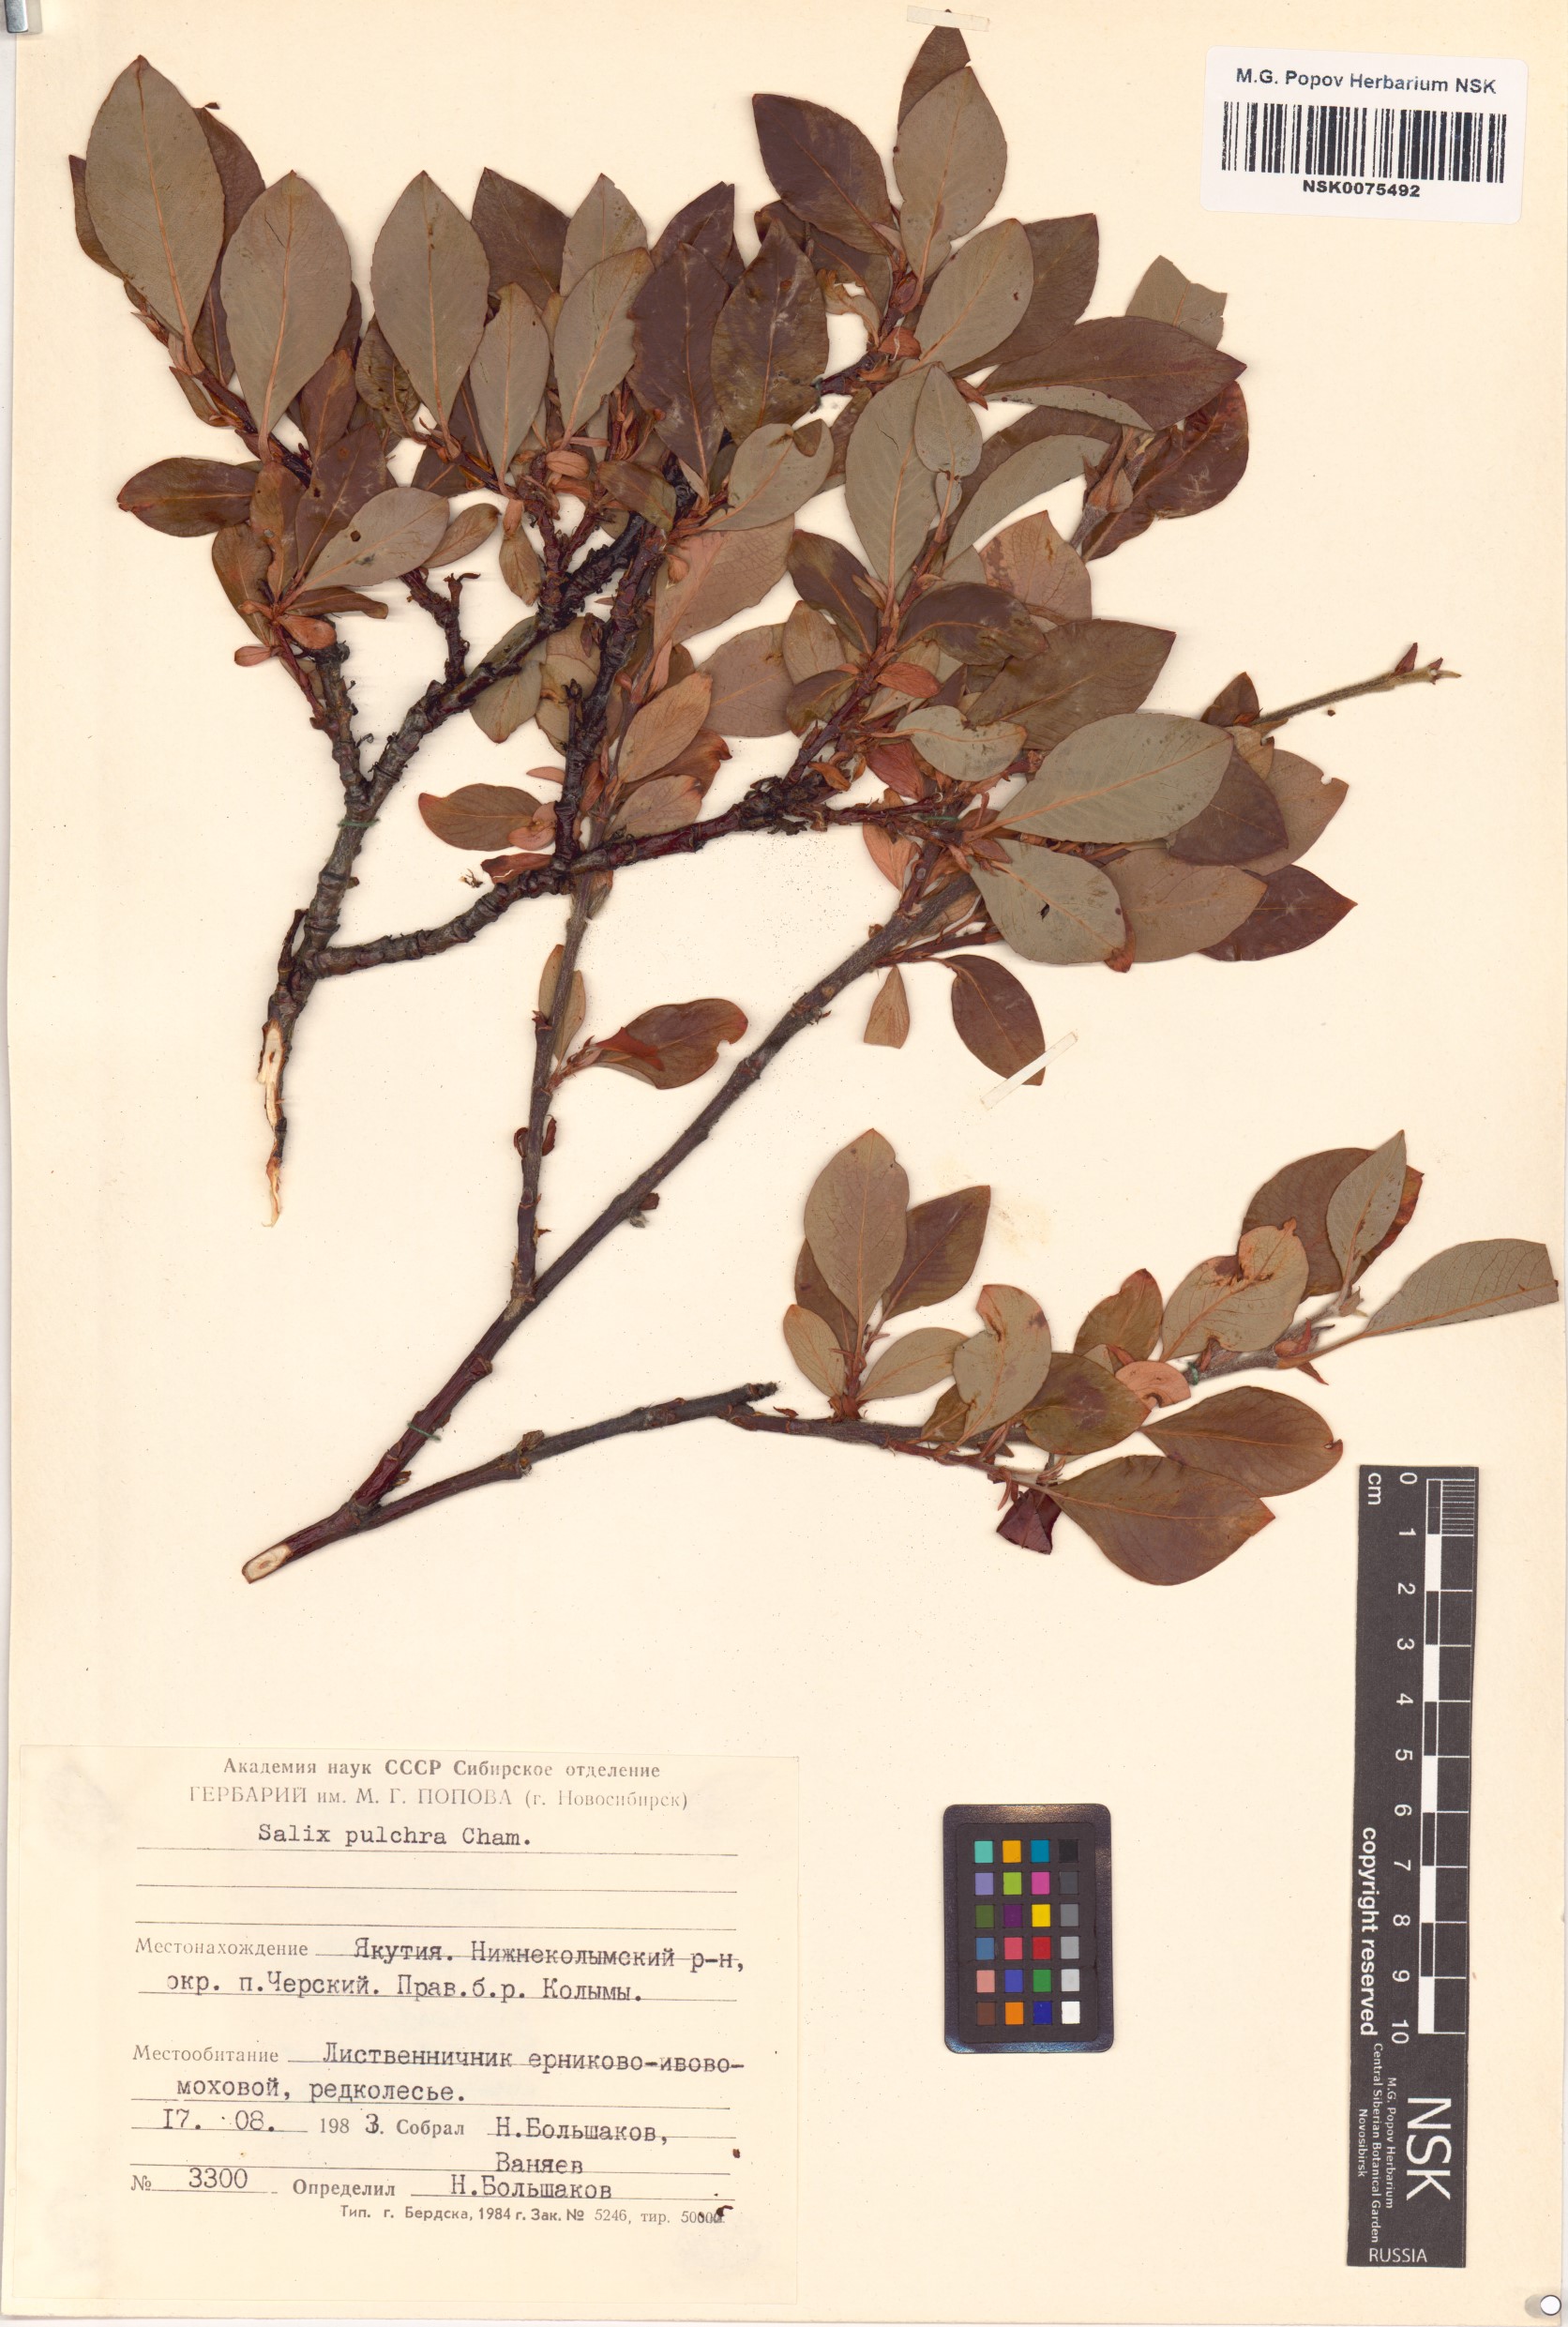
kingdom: Plantae
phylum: Tracheophyta
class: Magnoliopsida
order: Malpighiales
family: Salicaceae
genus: Salix
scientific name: Salix pulchra
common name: Diamond-leaved willow
